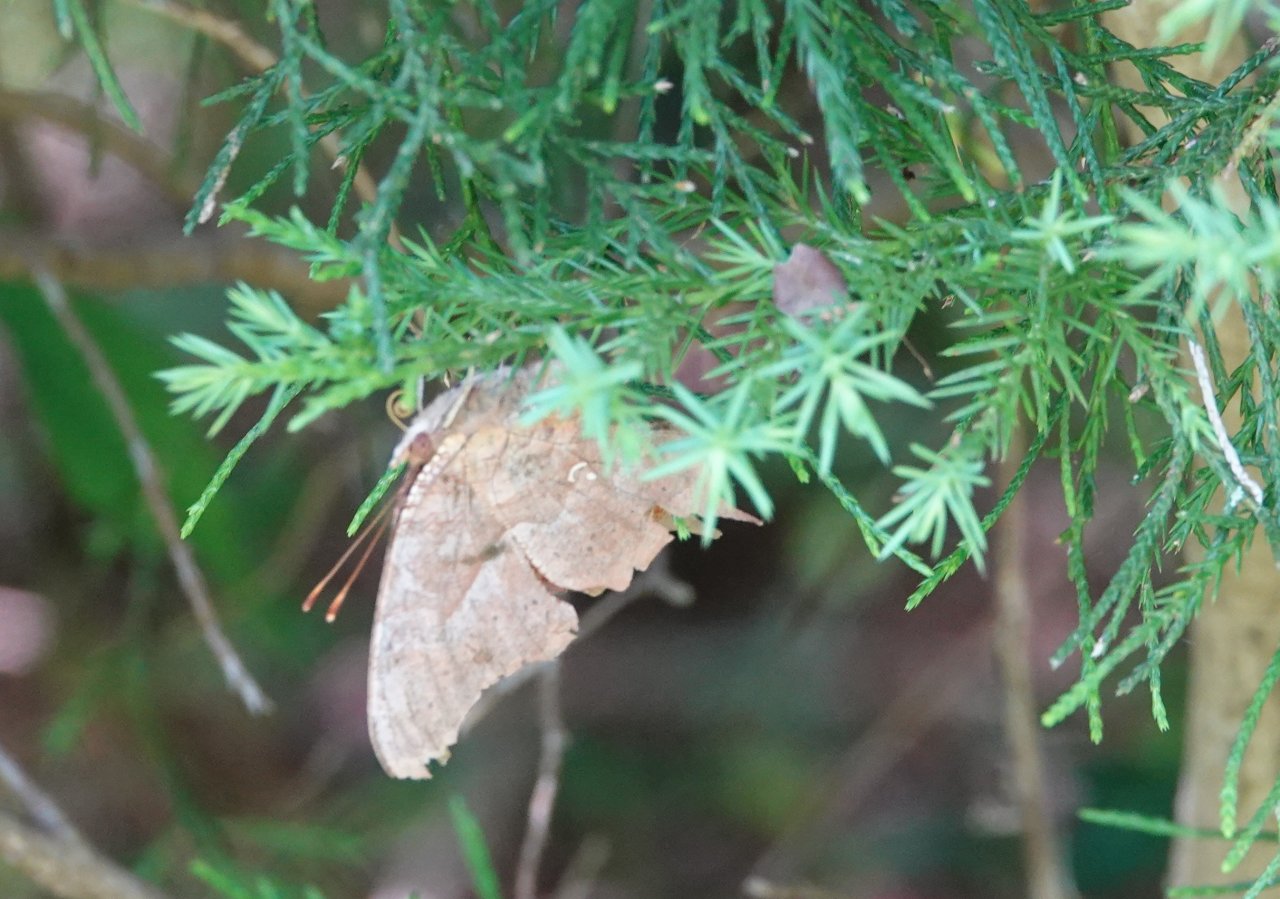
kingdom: Animalia
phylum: Arthropoda
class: Insecta
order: Lepidoptera
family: Nymphalidae
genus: Polygonia
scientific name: Polygonia interrogationis
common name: Question Mark
